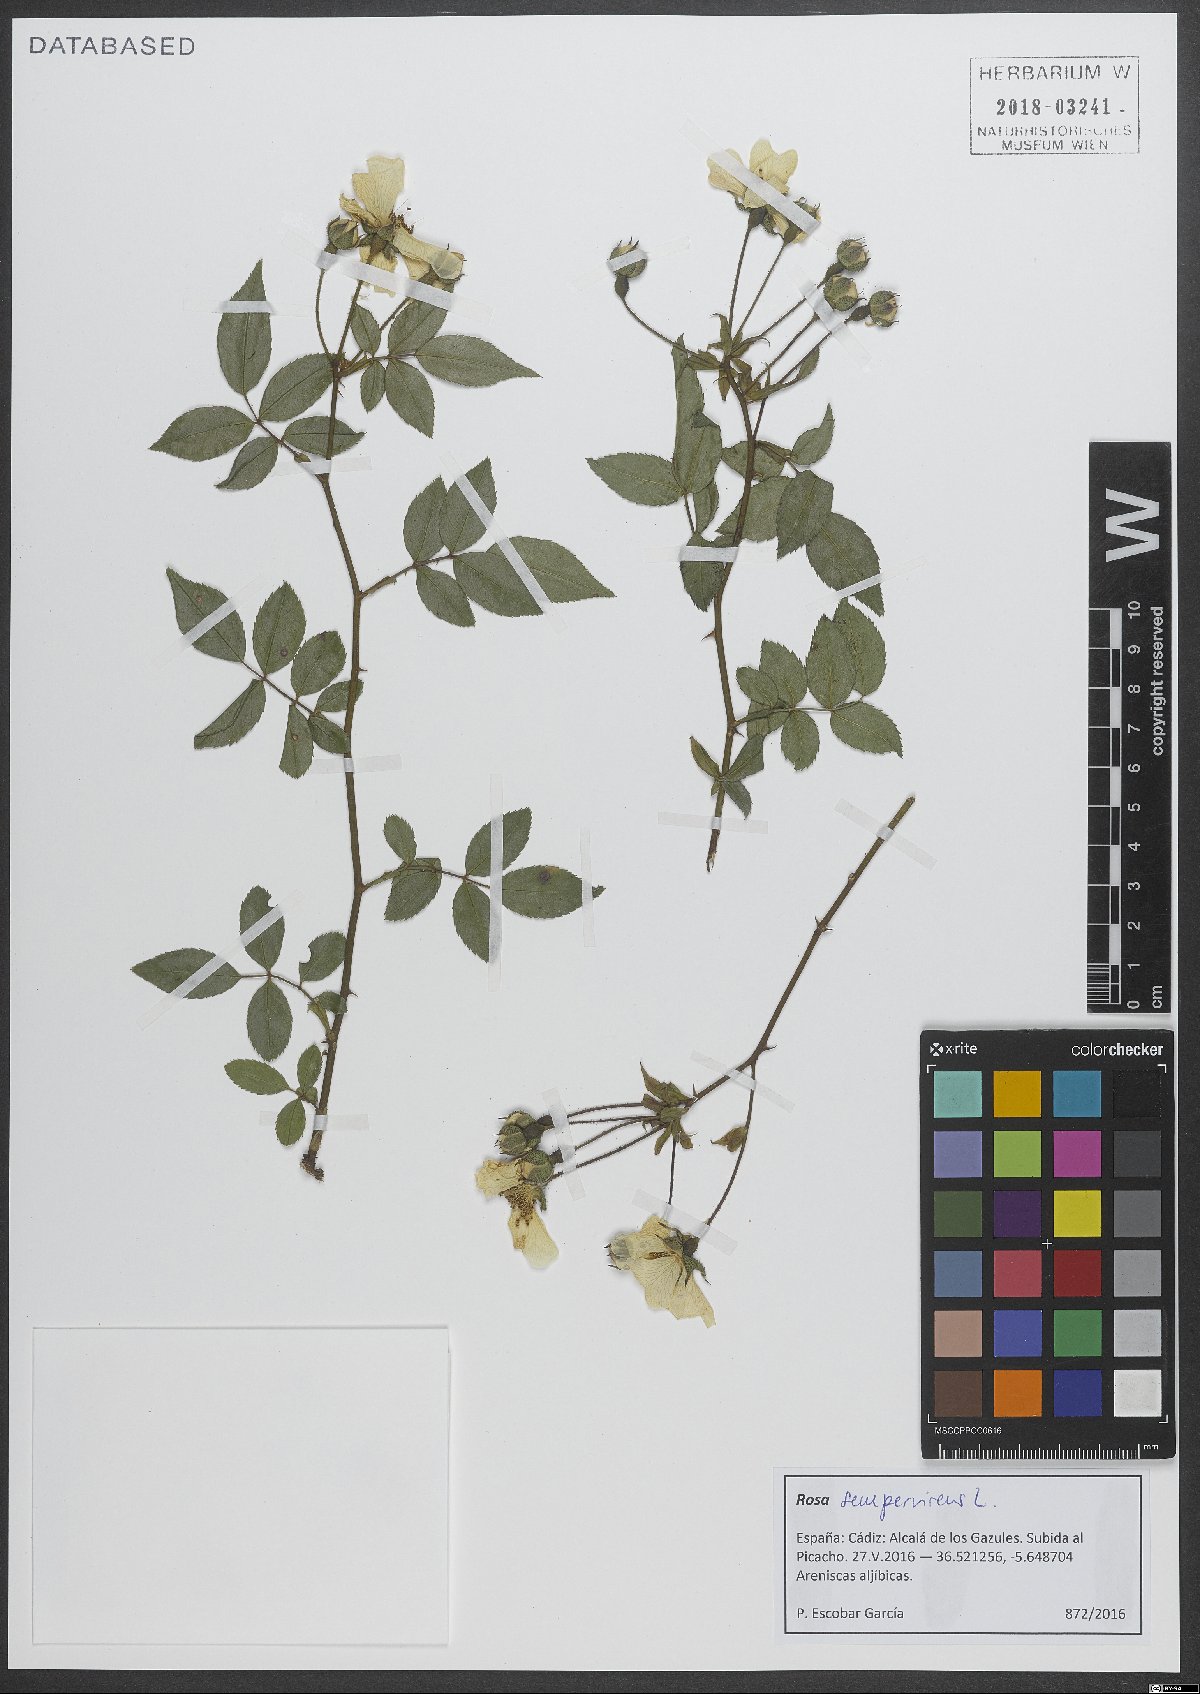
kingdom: Plantae
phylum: Tracheophyta
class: Magnoliopsida
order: Rosales
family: Rosaceae
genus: Rosa
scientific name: Rosa sempervirens
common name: Evergreen rose
